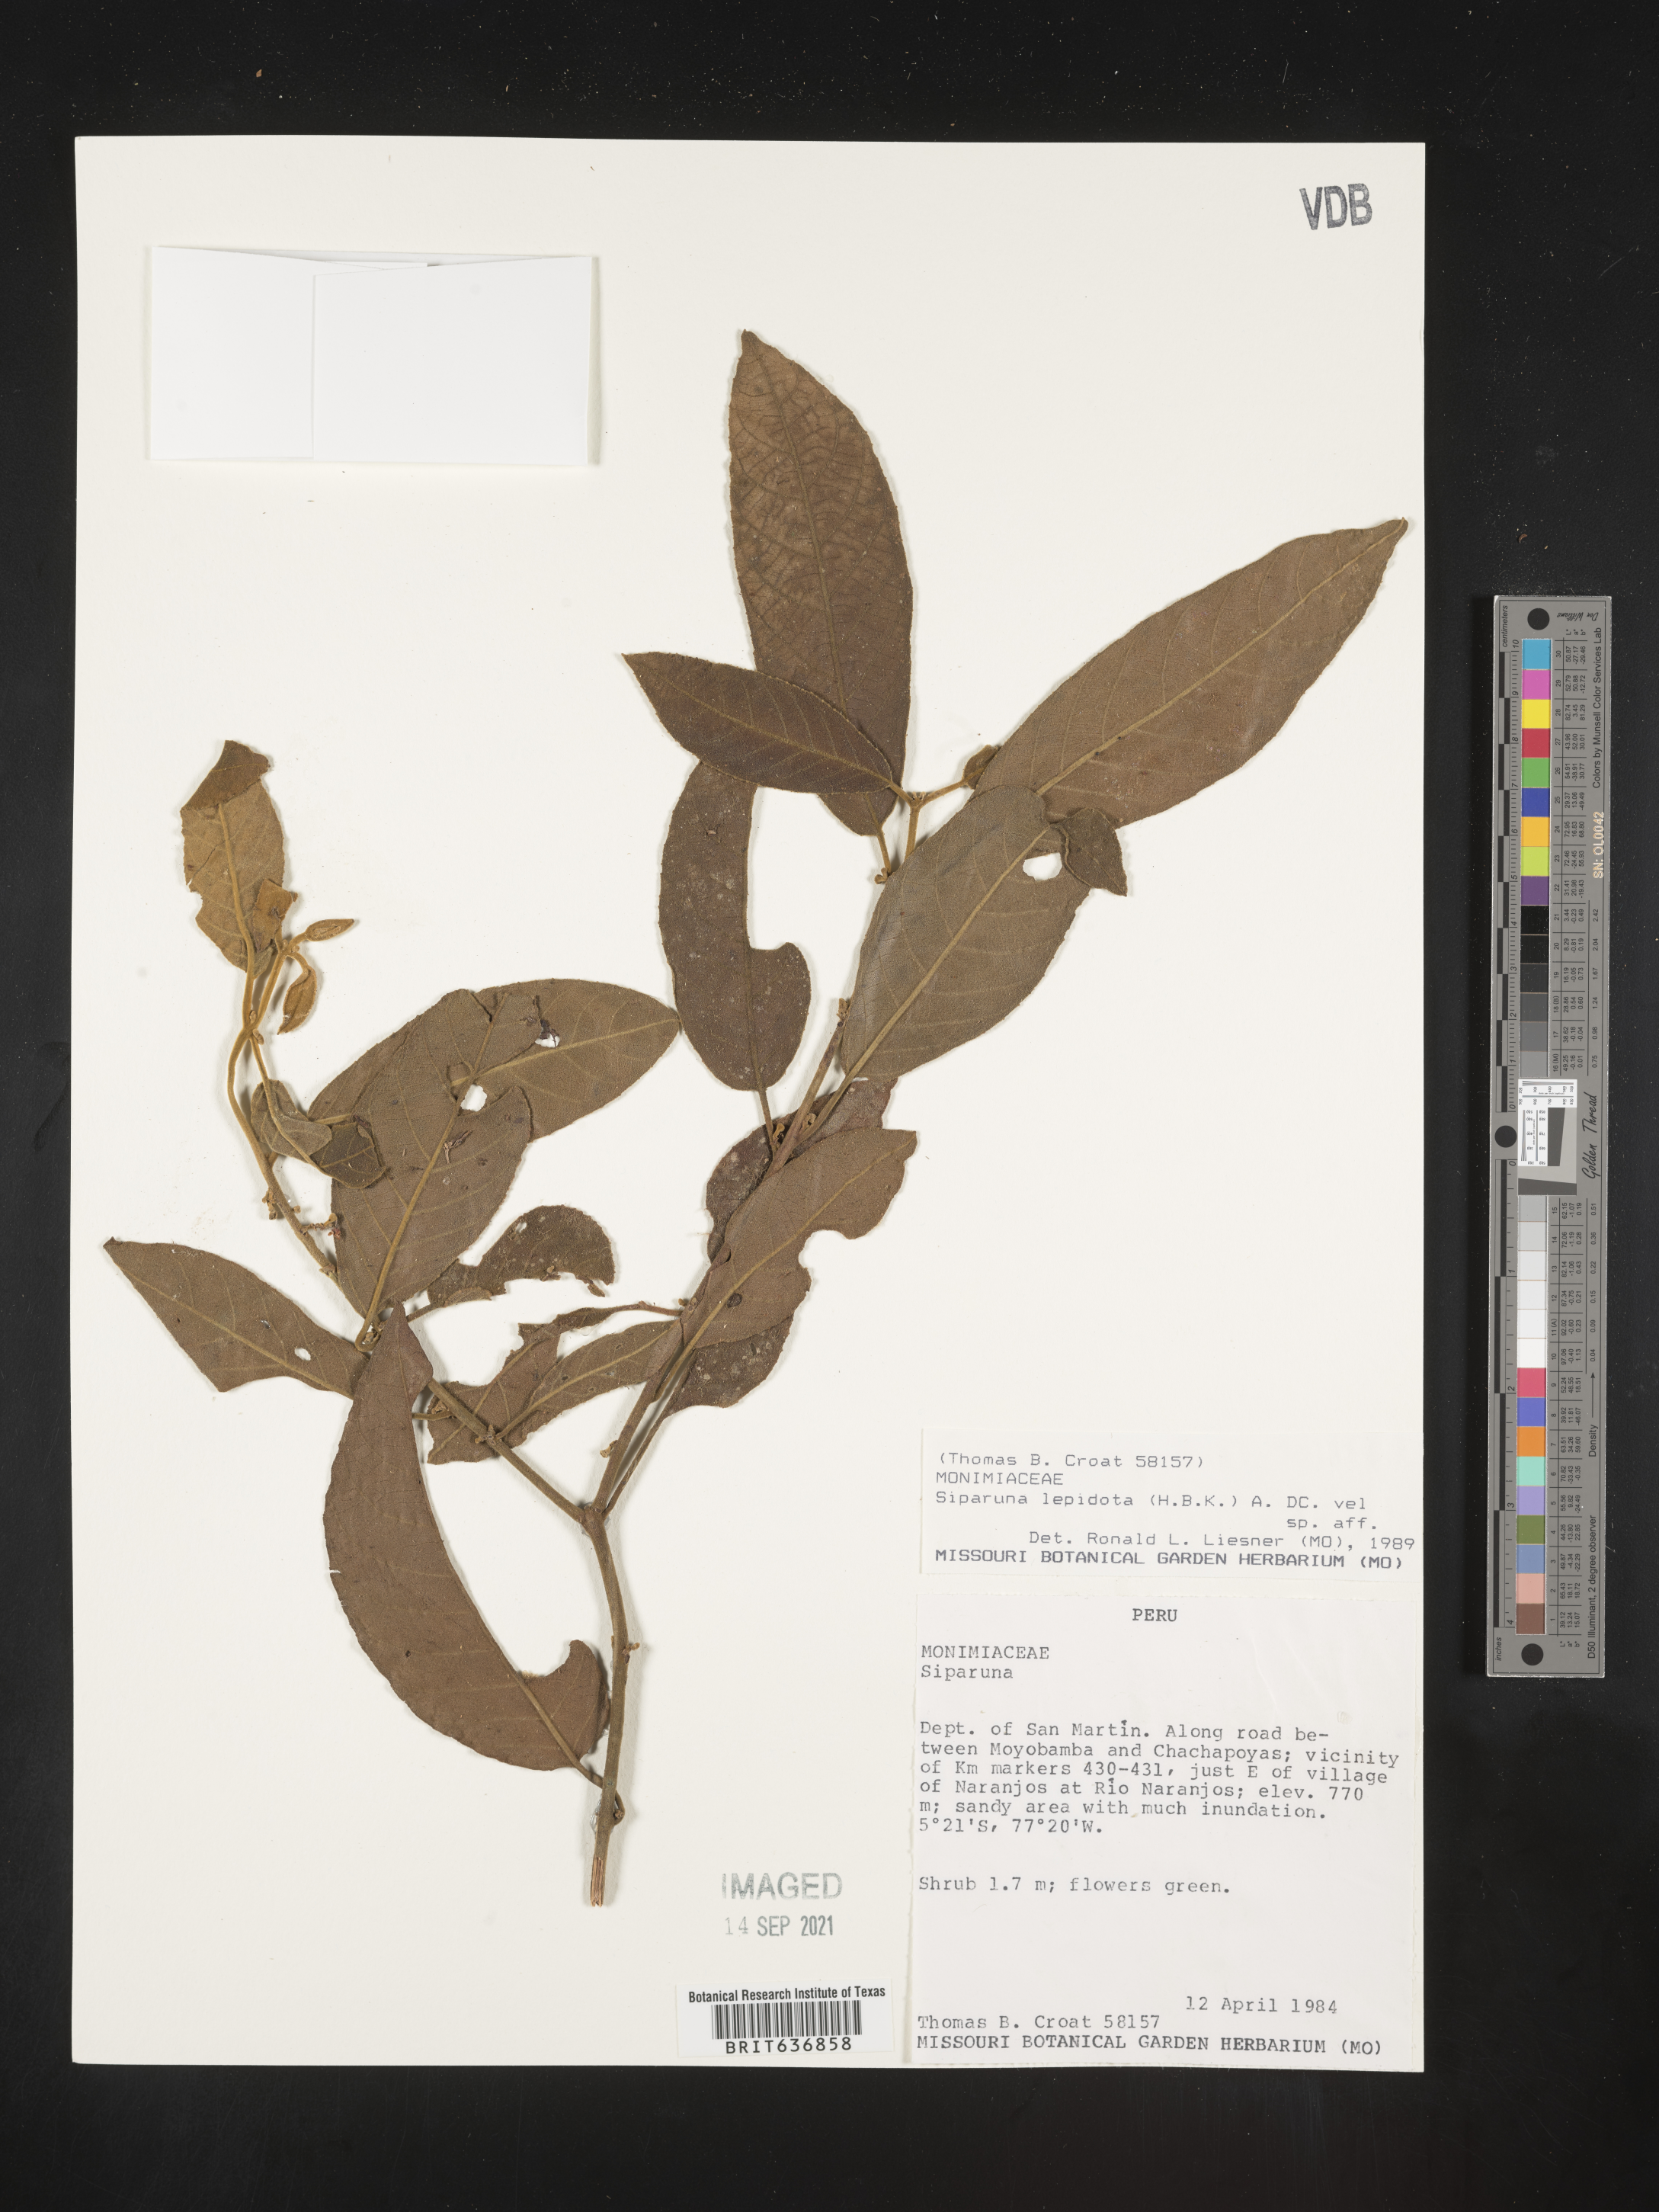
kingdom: Plantae
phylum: Tracheophyta
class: Magnoliopsida
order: Laurales
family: Siparunaceae
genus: Siparuna
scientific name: Siparuna
